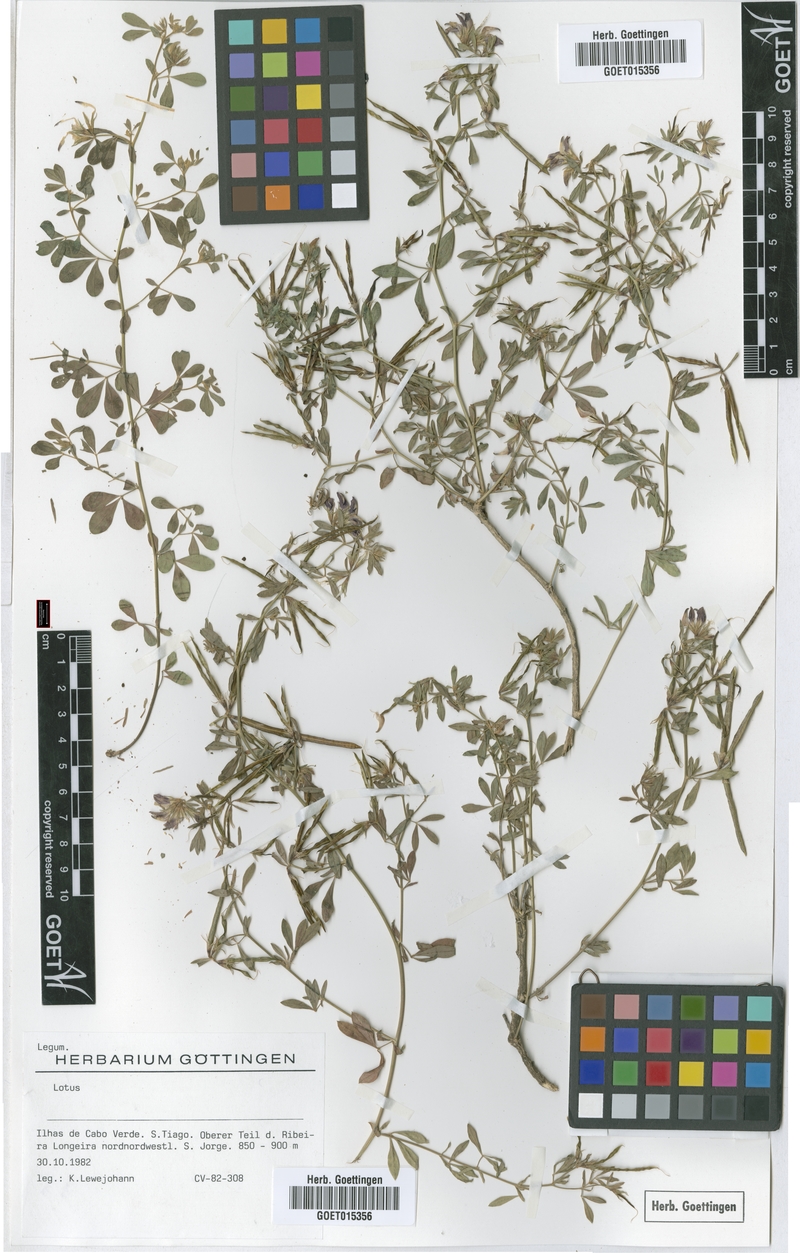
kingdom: Plantae
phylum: Tracheophyta
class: Magnoliopsida
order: Fabales
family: Fabaceae
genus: Lotus
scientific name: Lotus
